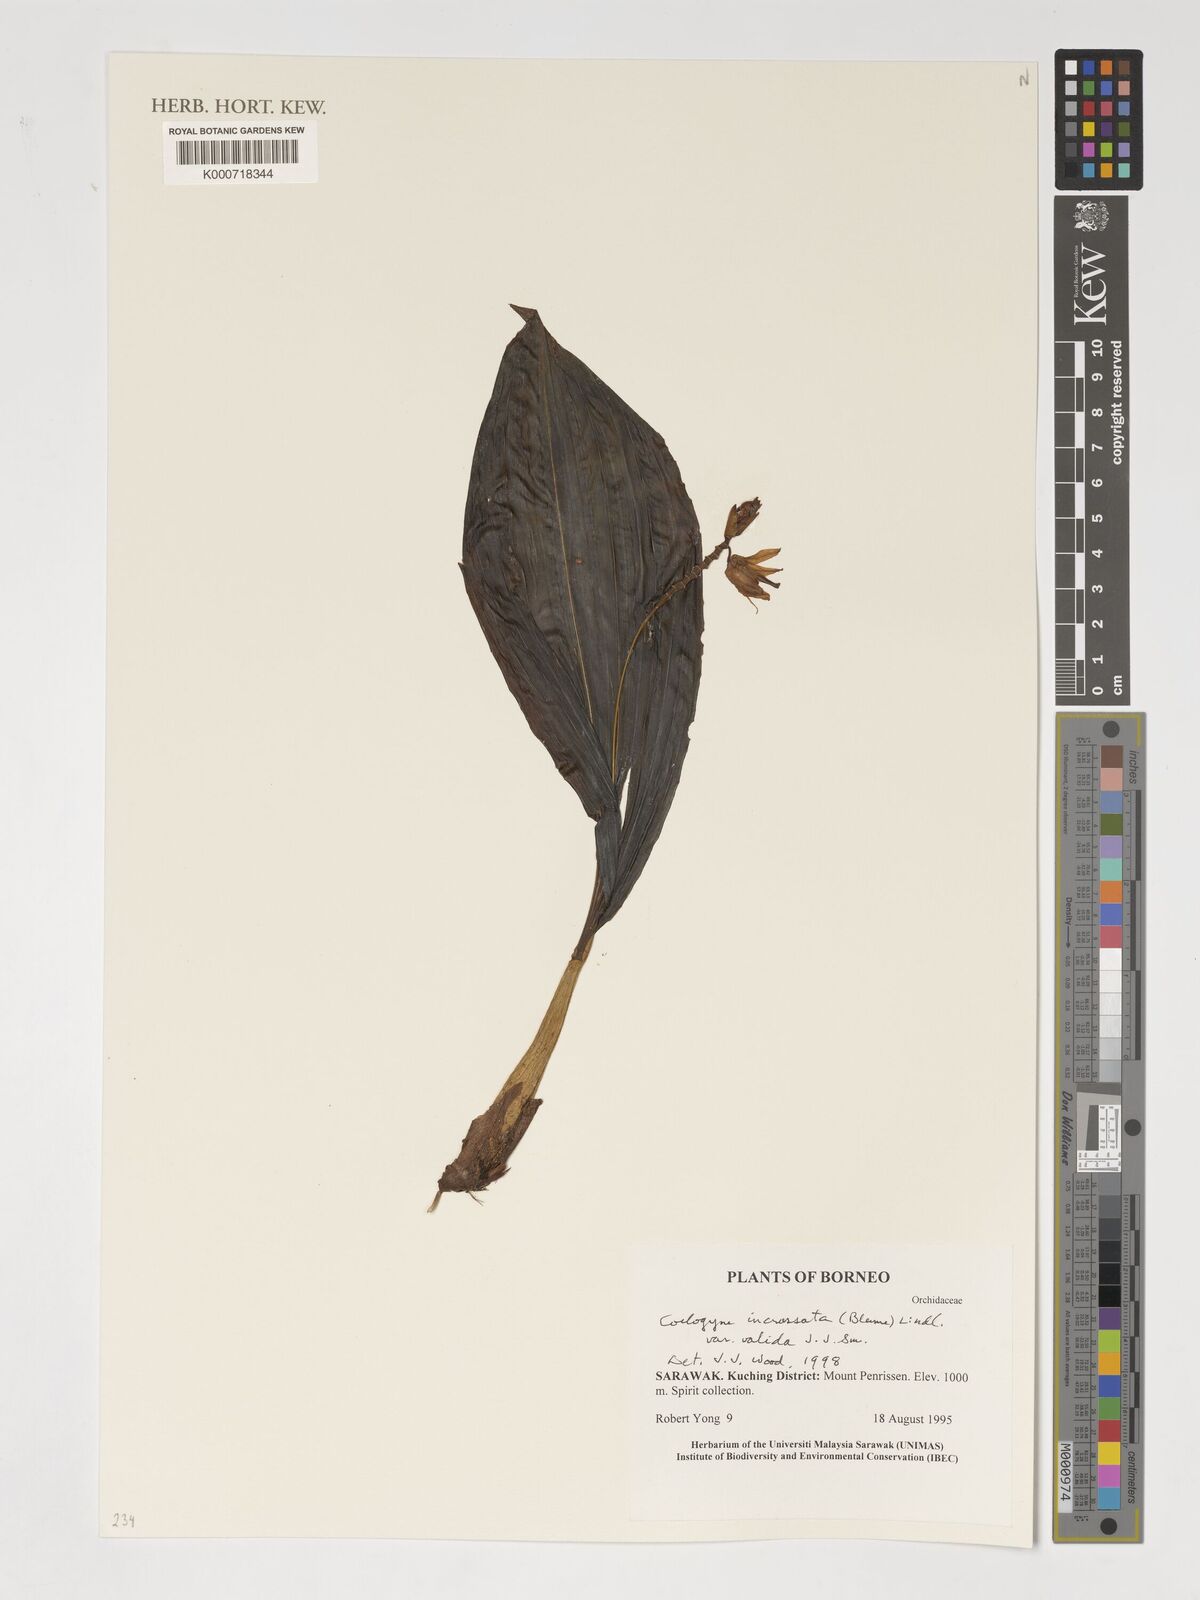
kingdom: Plantae
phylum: Tracheophyta
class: Liliopsida
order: Asparagales
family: Orchidaceae
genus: Coelogyne
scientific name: Coelogyne incrassata
